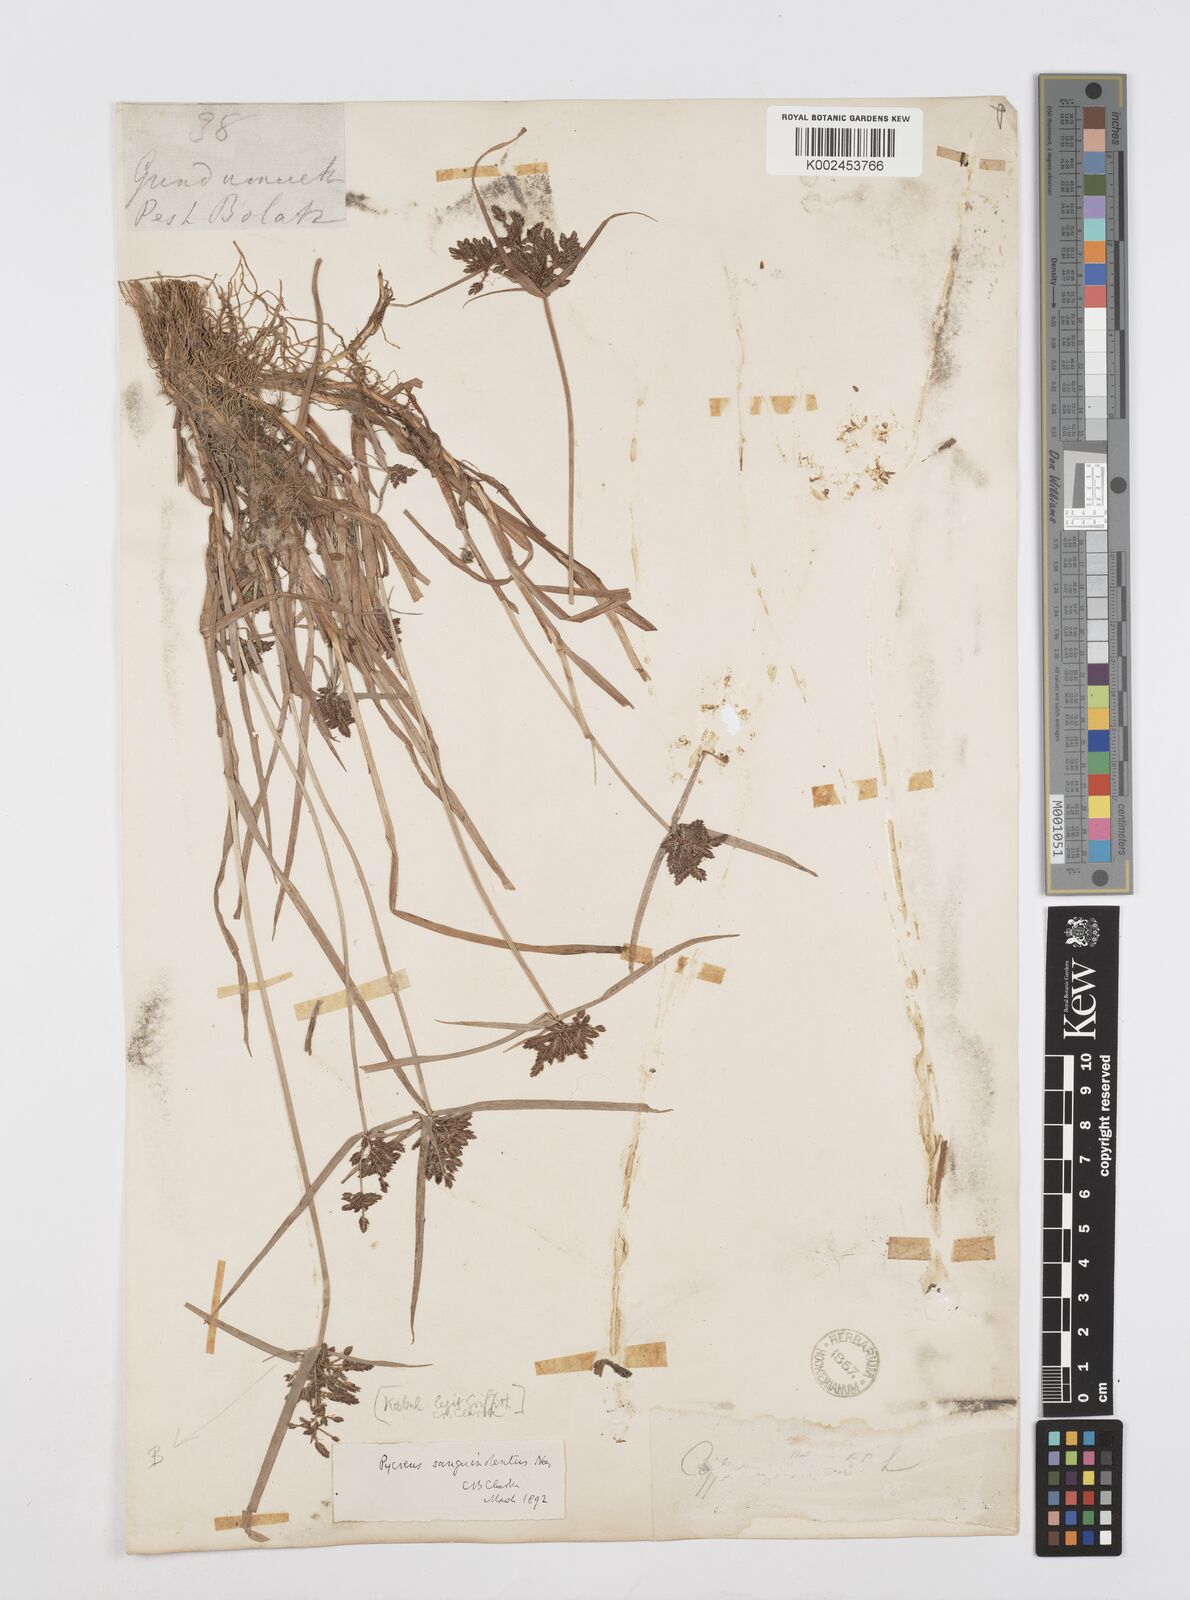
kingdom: Plantae
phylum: Tracheophyta
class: Liliopsida
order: Poales
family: Cyperaceae
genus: Cyperus
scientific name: Cyperus sanguinolentus
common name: Purpleglume flatsedge
